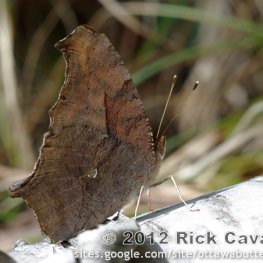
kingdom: Animalia
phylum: Arthropoda
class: Insecta
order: Lepidoptera
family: Nymphalidae
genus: Polygonia
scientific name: Polygonia interrogationis
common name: Question Mark
